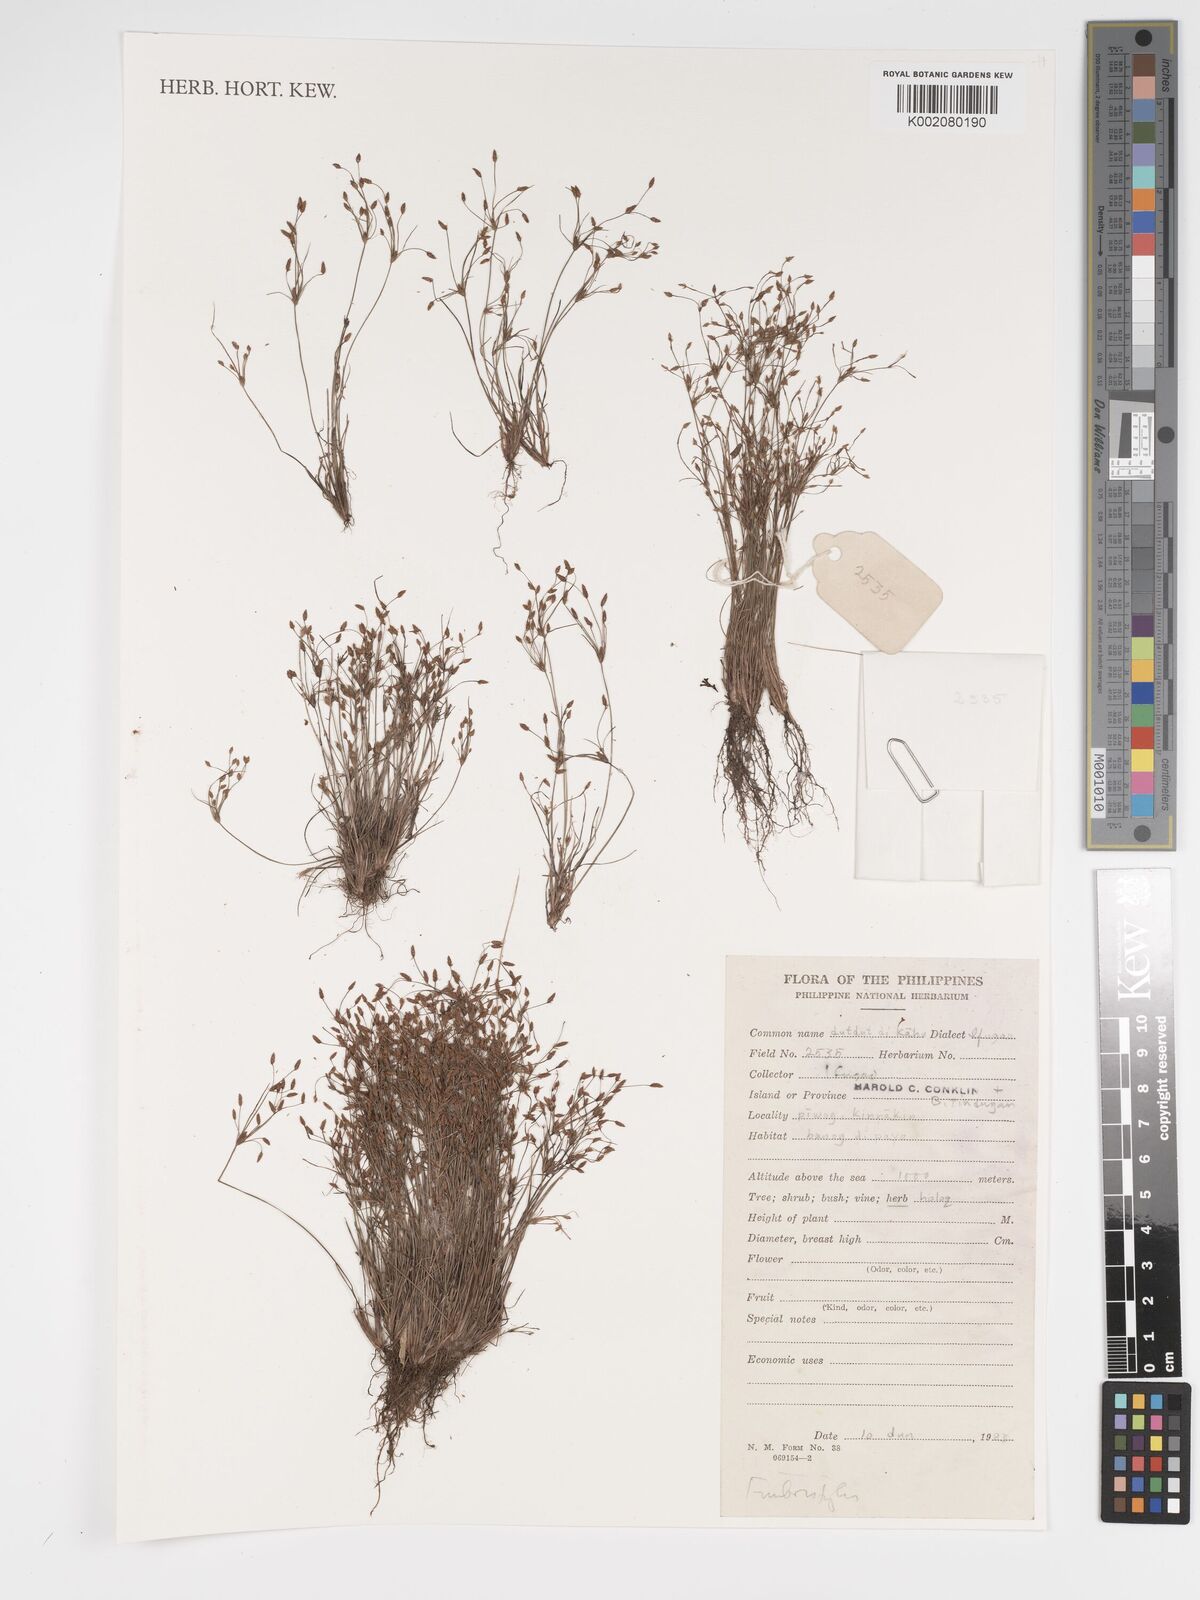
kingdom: Plantae
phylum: Tracheophyta
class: Liliopsida
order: Poales
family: Cyperaceae
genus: Fimbristylis
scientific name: Fimbristylis
